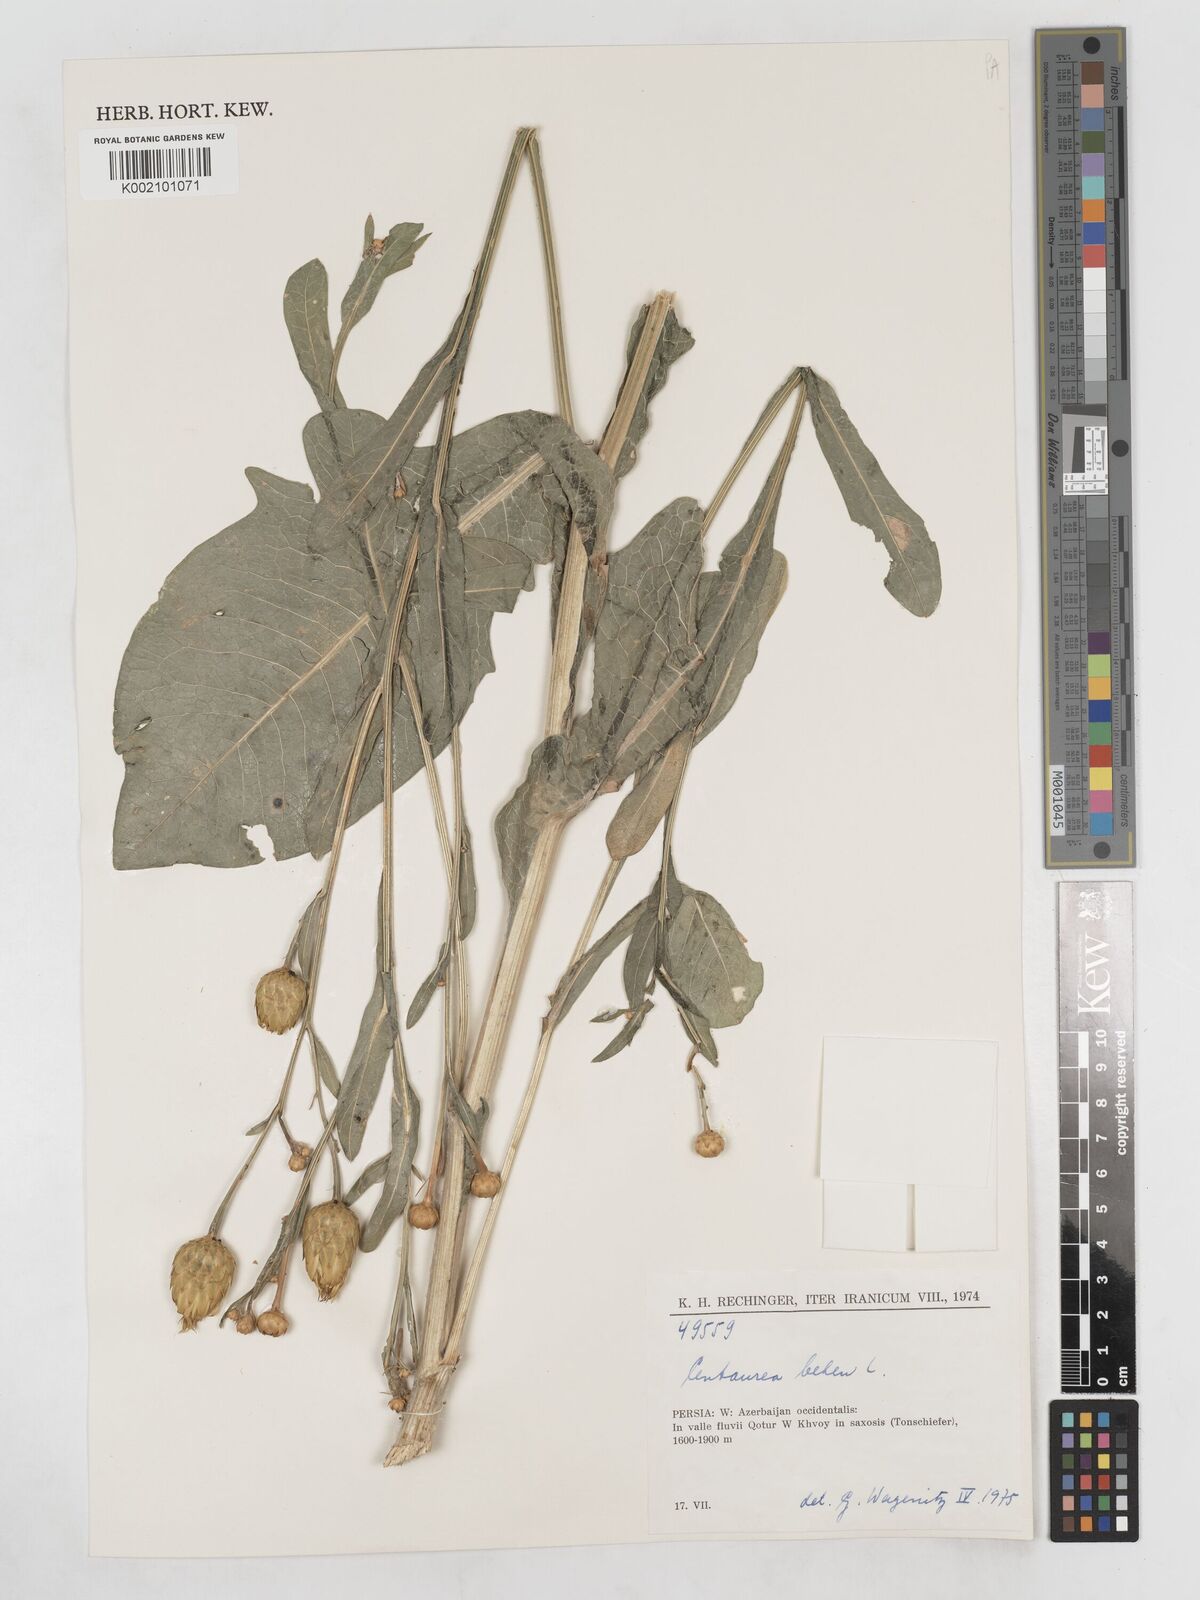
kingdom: Plantae
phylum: Tracheophyta
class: Magnoliopsida
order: Asterales
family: Asteraceae
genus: Centaurea
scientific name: Centaurea behen
